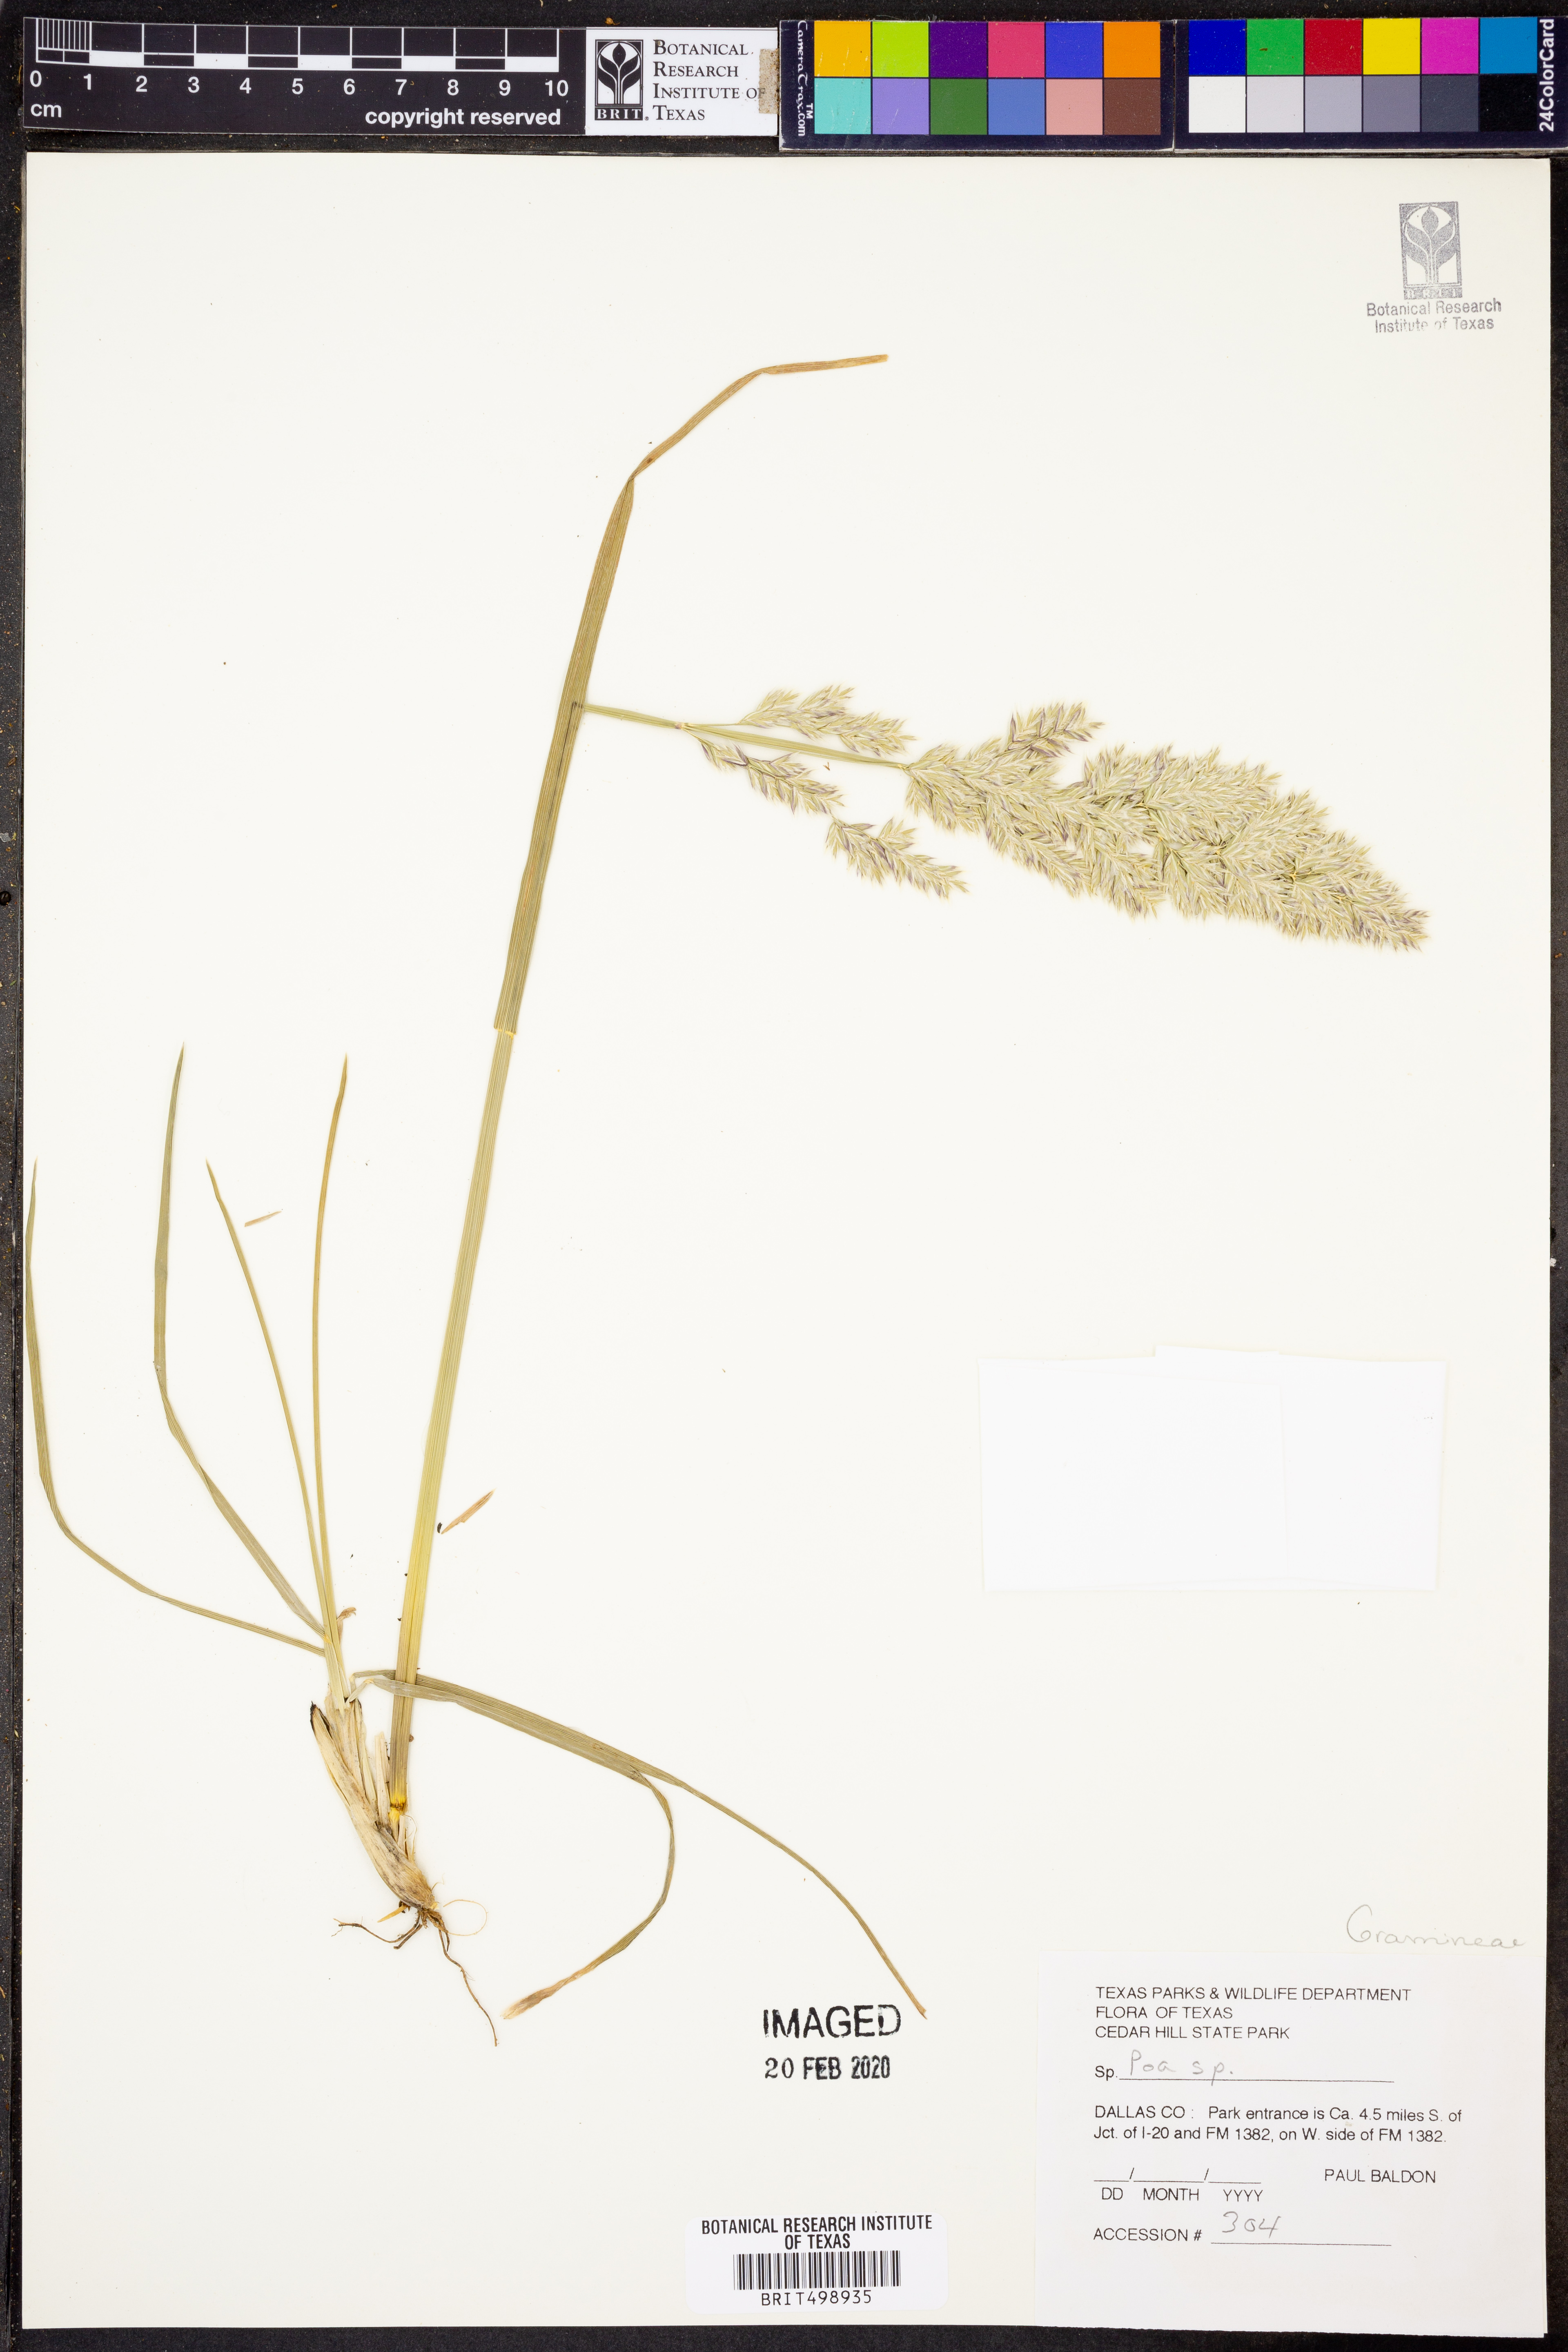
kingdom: Plantae
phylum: Tracheophyta
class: Liliopsida
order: Poales
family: Poaceae
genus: Poa
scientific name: Poa
